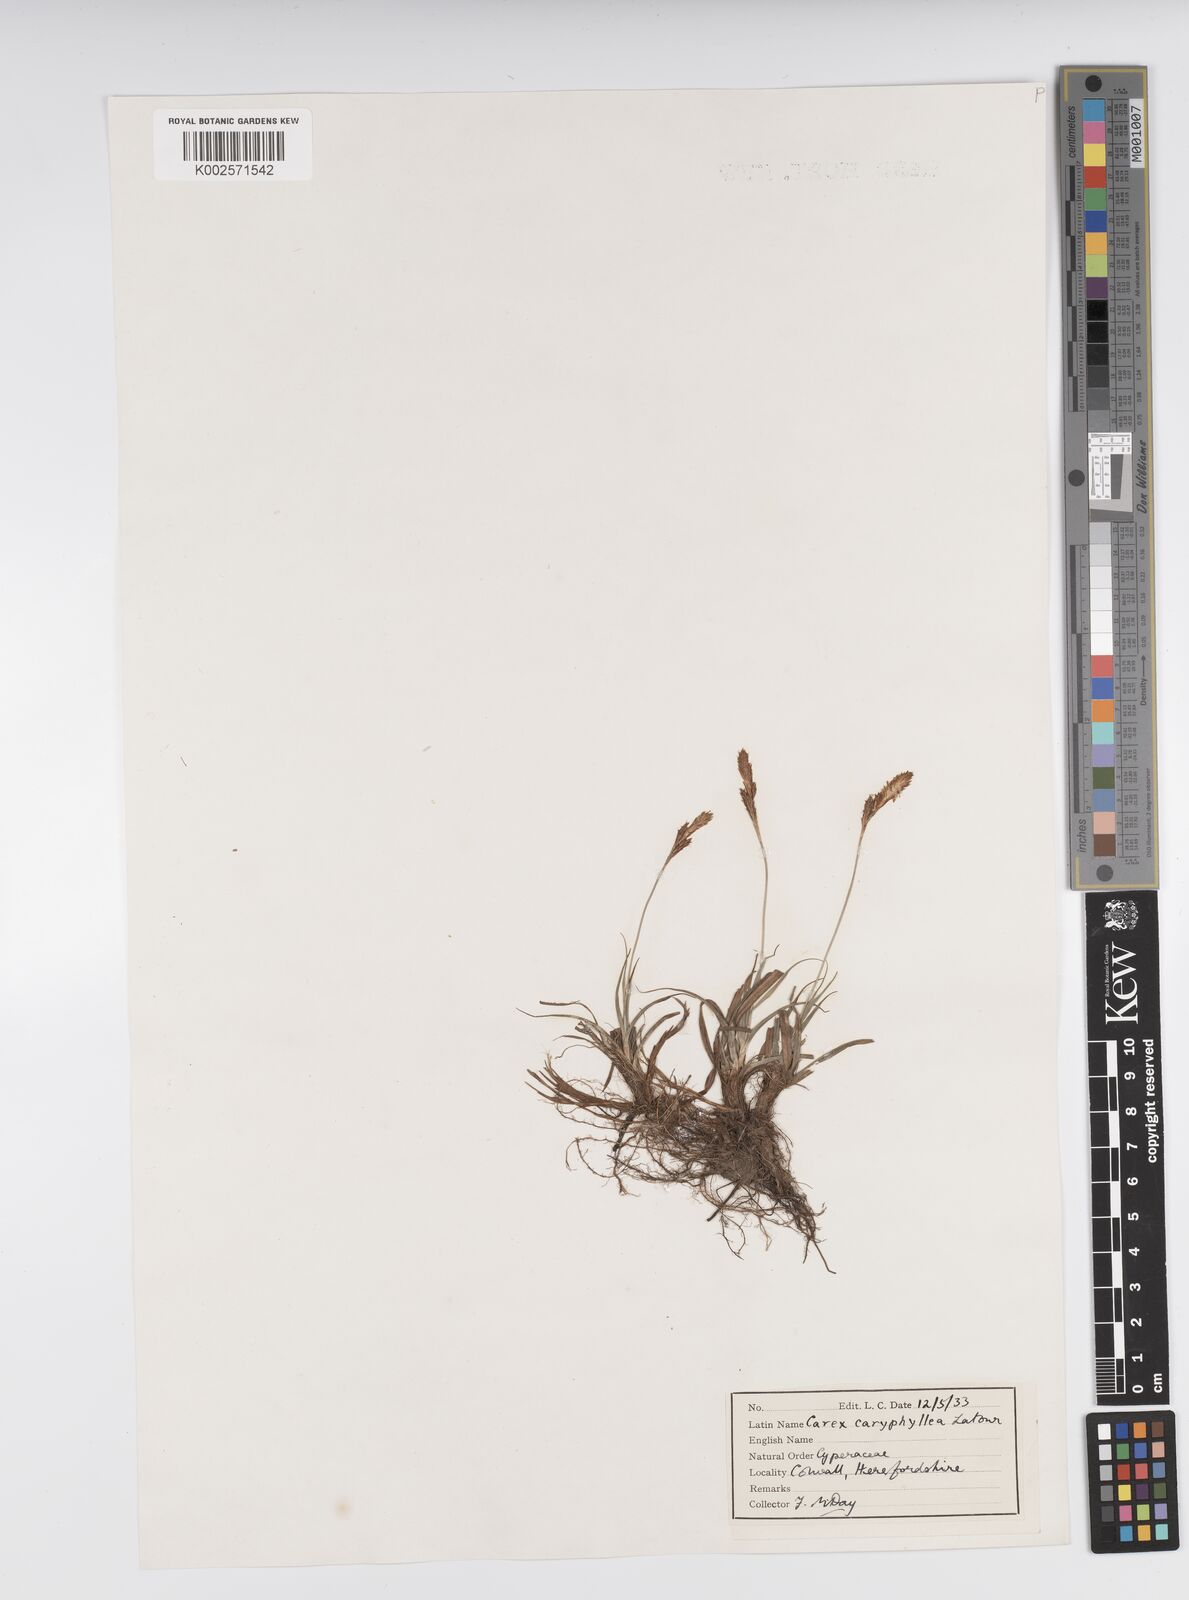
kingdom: Plantae
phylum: Tracheophyta
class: Liliopsida
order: Poales
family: Cyperaceae
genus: Carex
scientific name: Carex caryophyllea
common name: Spring sedge
